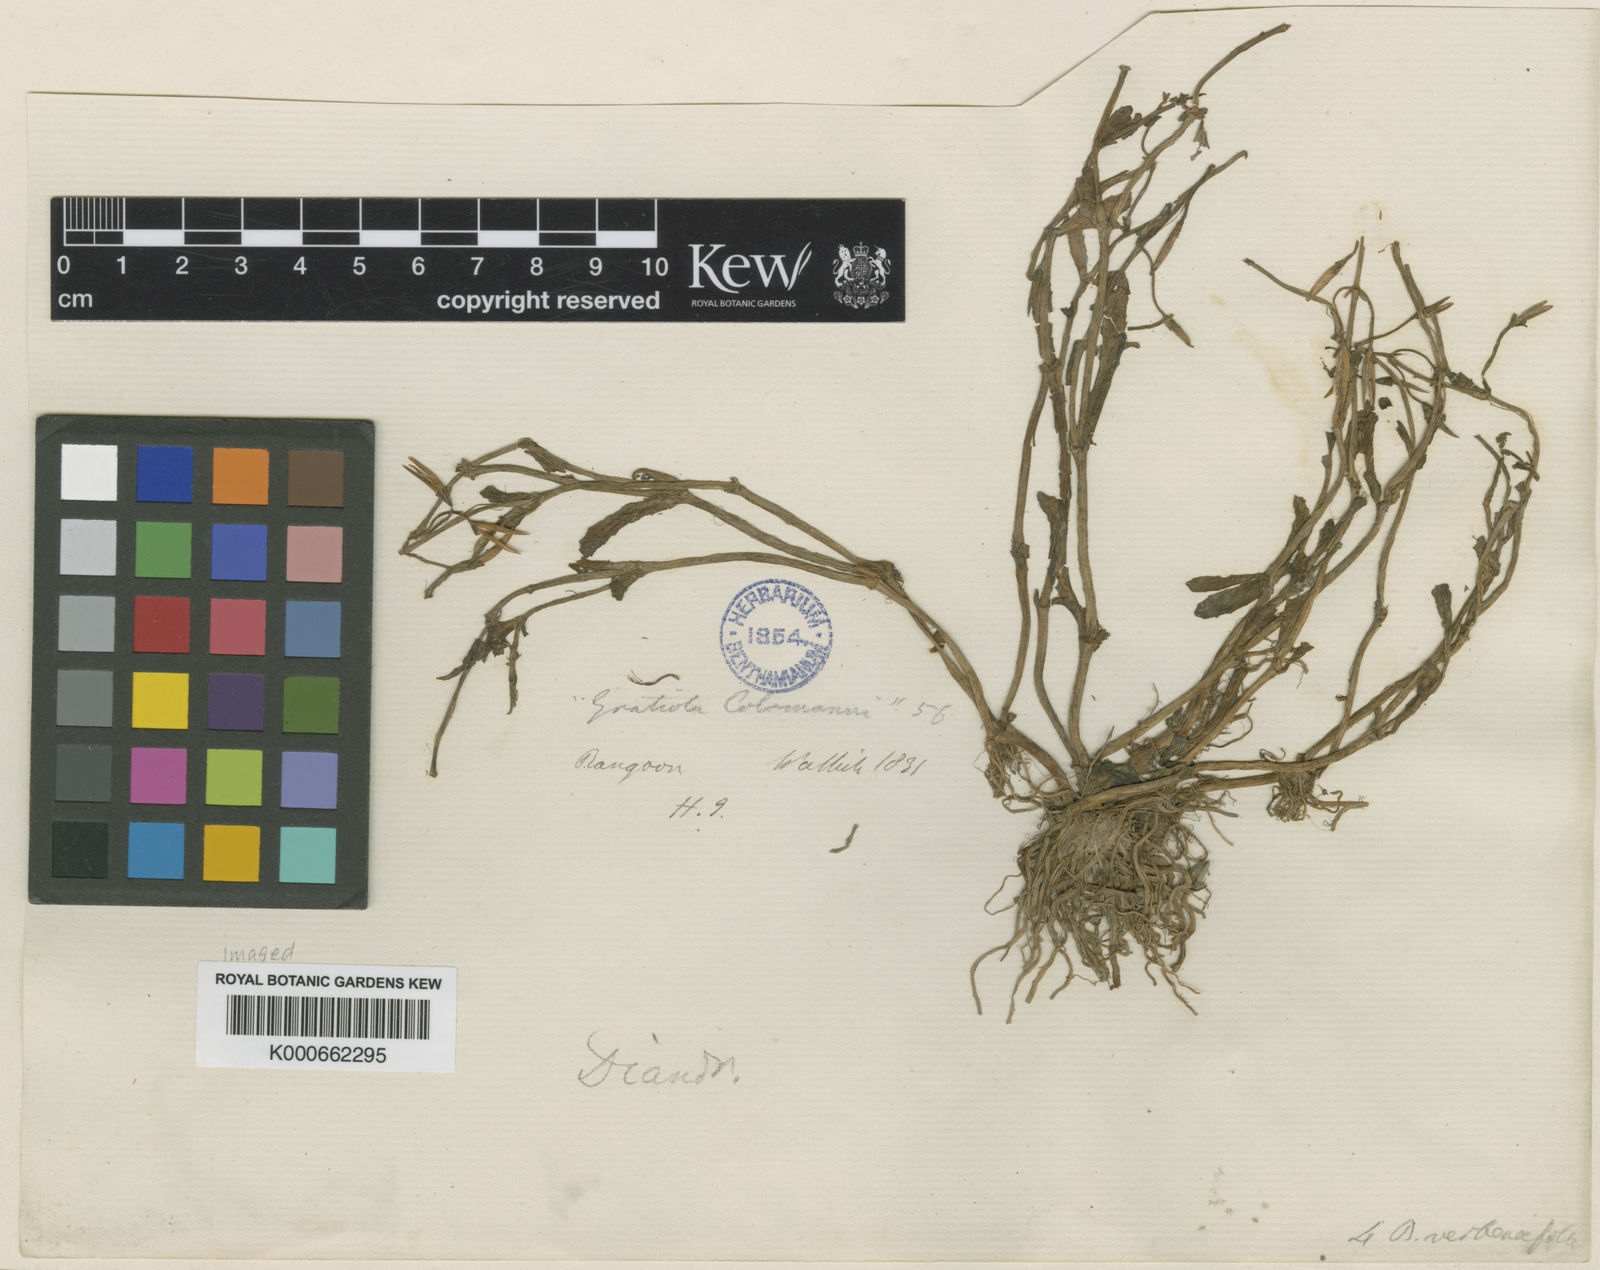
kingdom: Plantae
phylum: Tracheophyta
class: Magnoliopsida
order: Lamiales
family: Linderniaceae
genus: Bonnaya
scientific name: Bonnaya antipoda
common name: Sparrow false pimpernel
